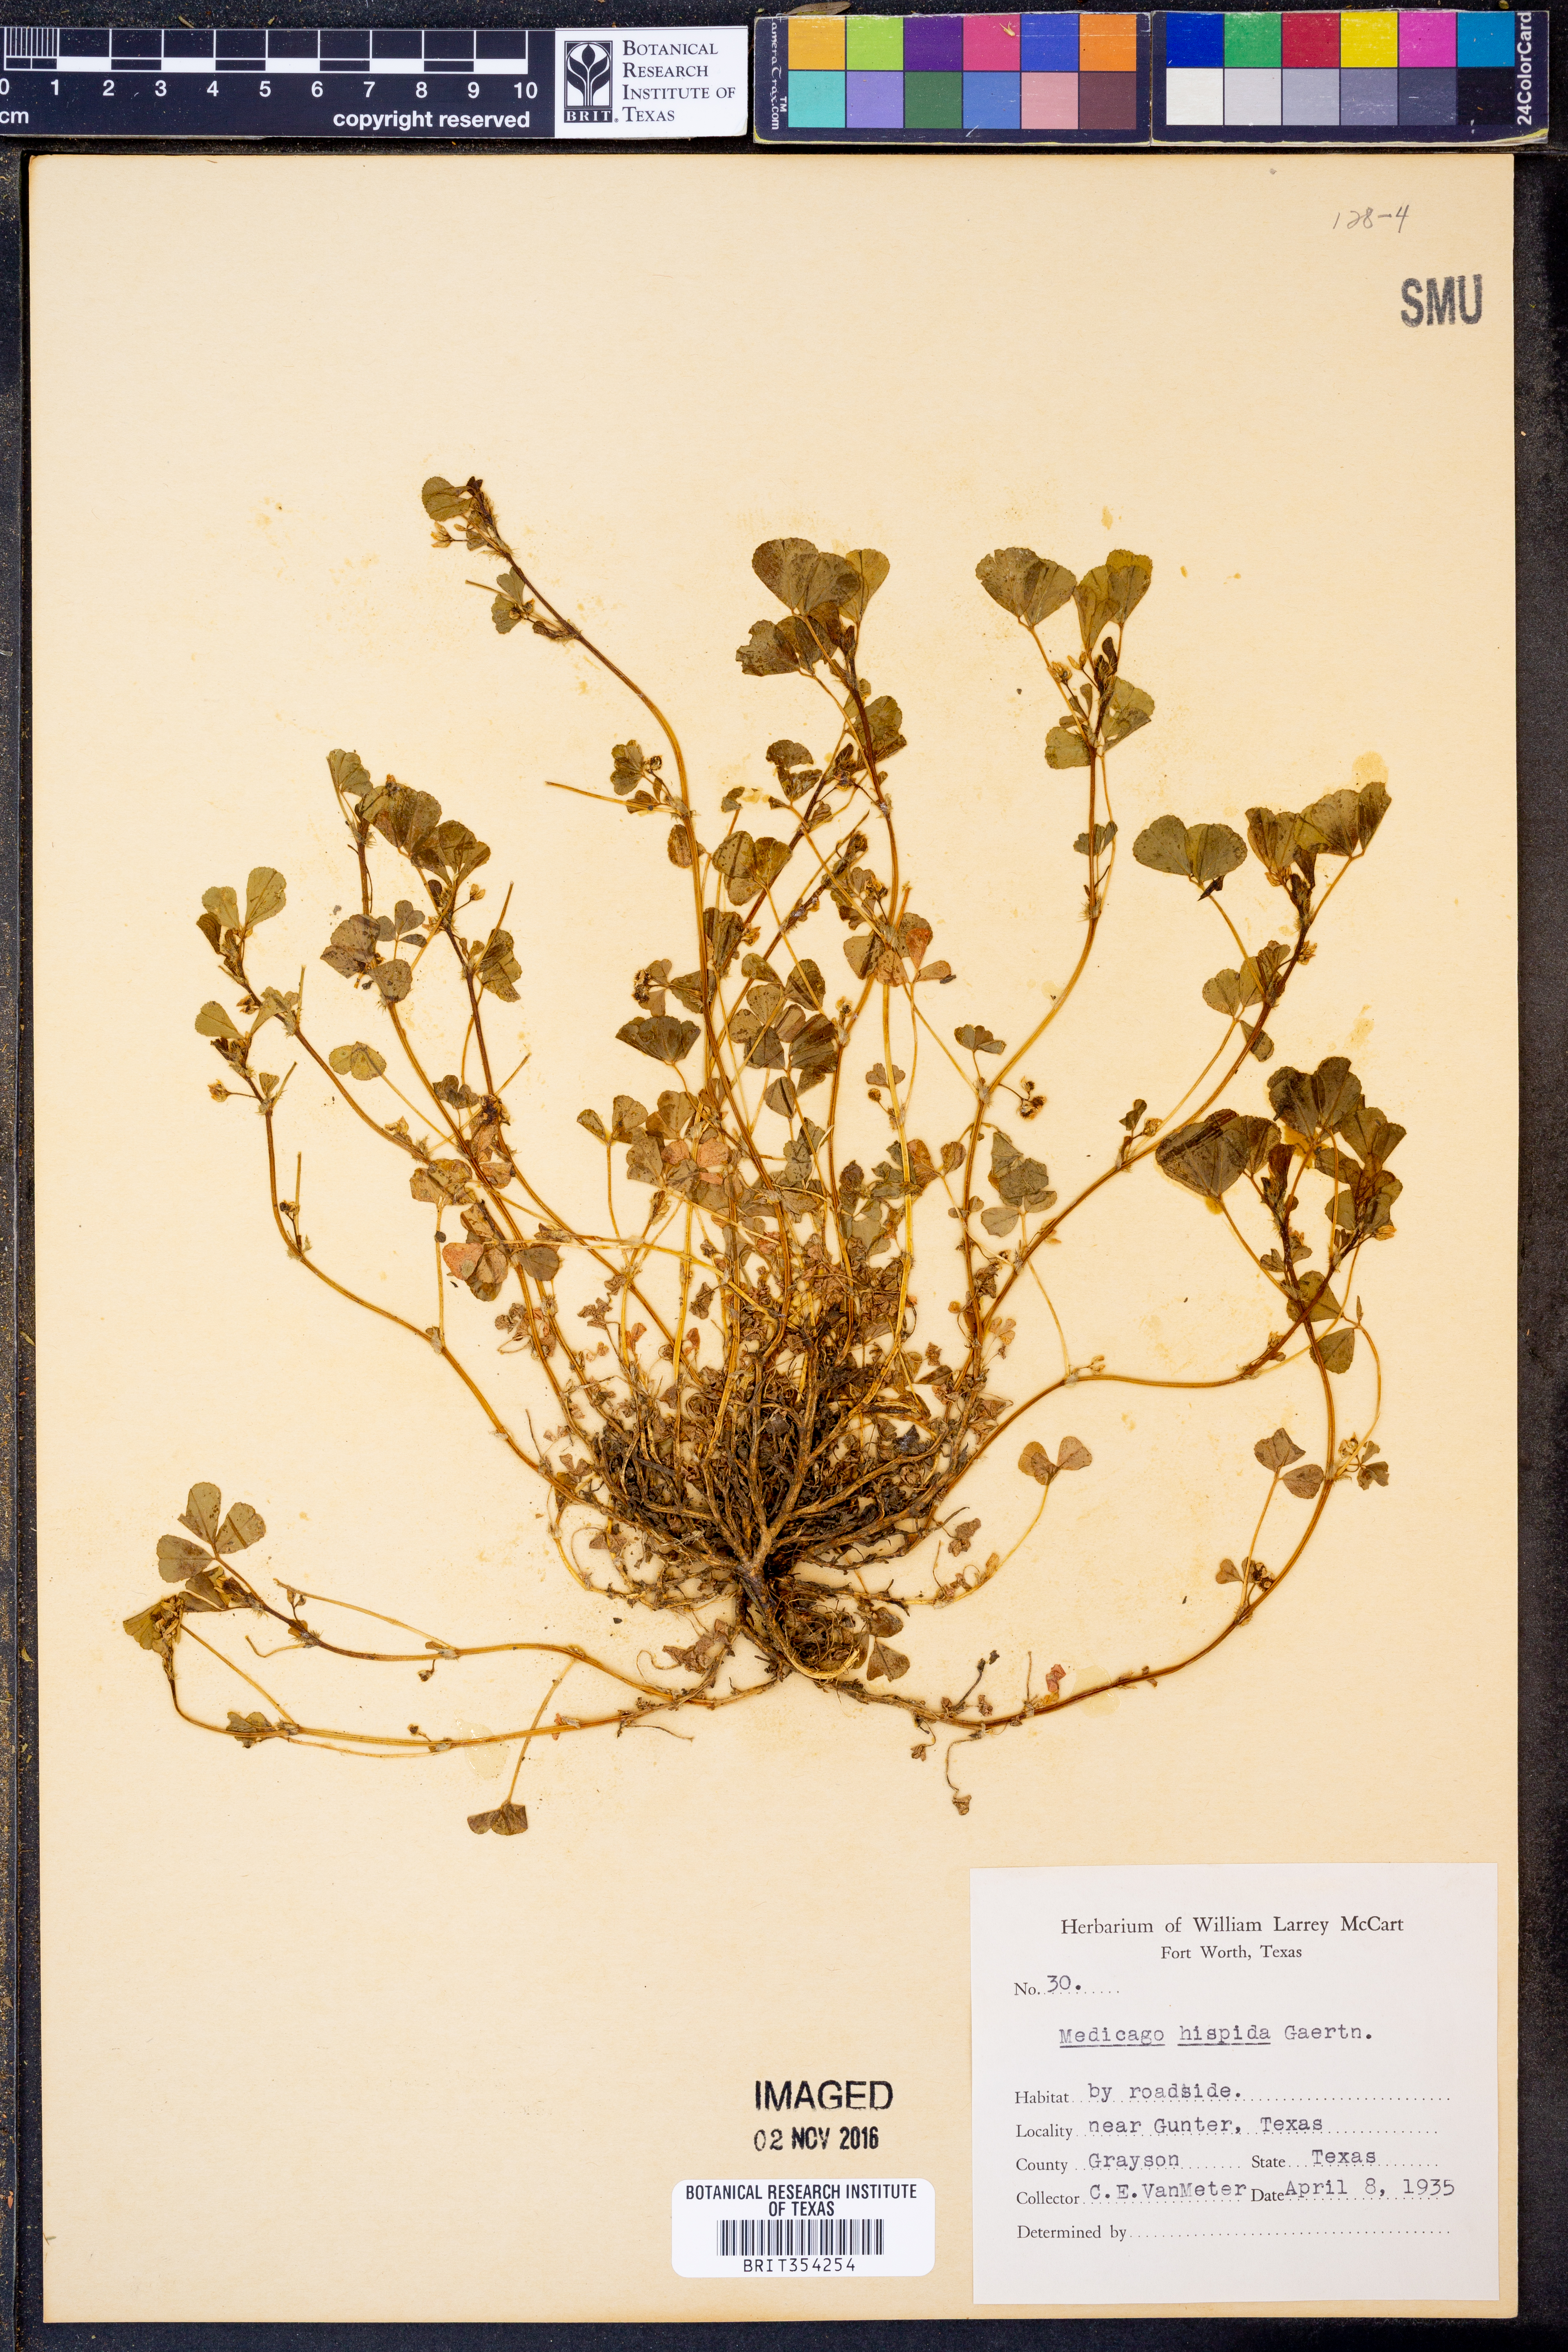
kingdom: Plantae
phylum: Tracheophyta
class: Magnoliopsida
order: Fabales
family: Fabaceae
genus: Medicago
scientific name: Medicago polymorpha
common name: Burclover
